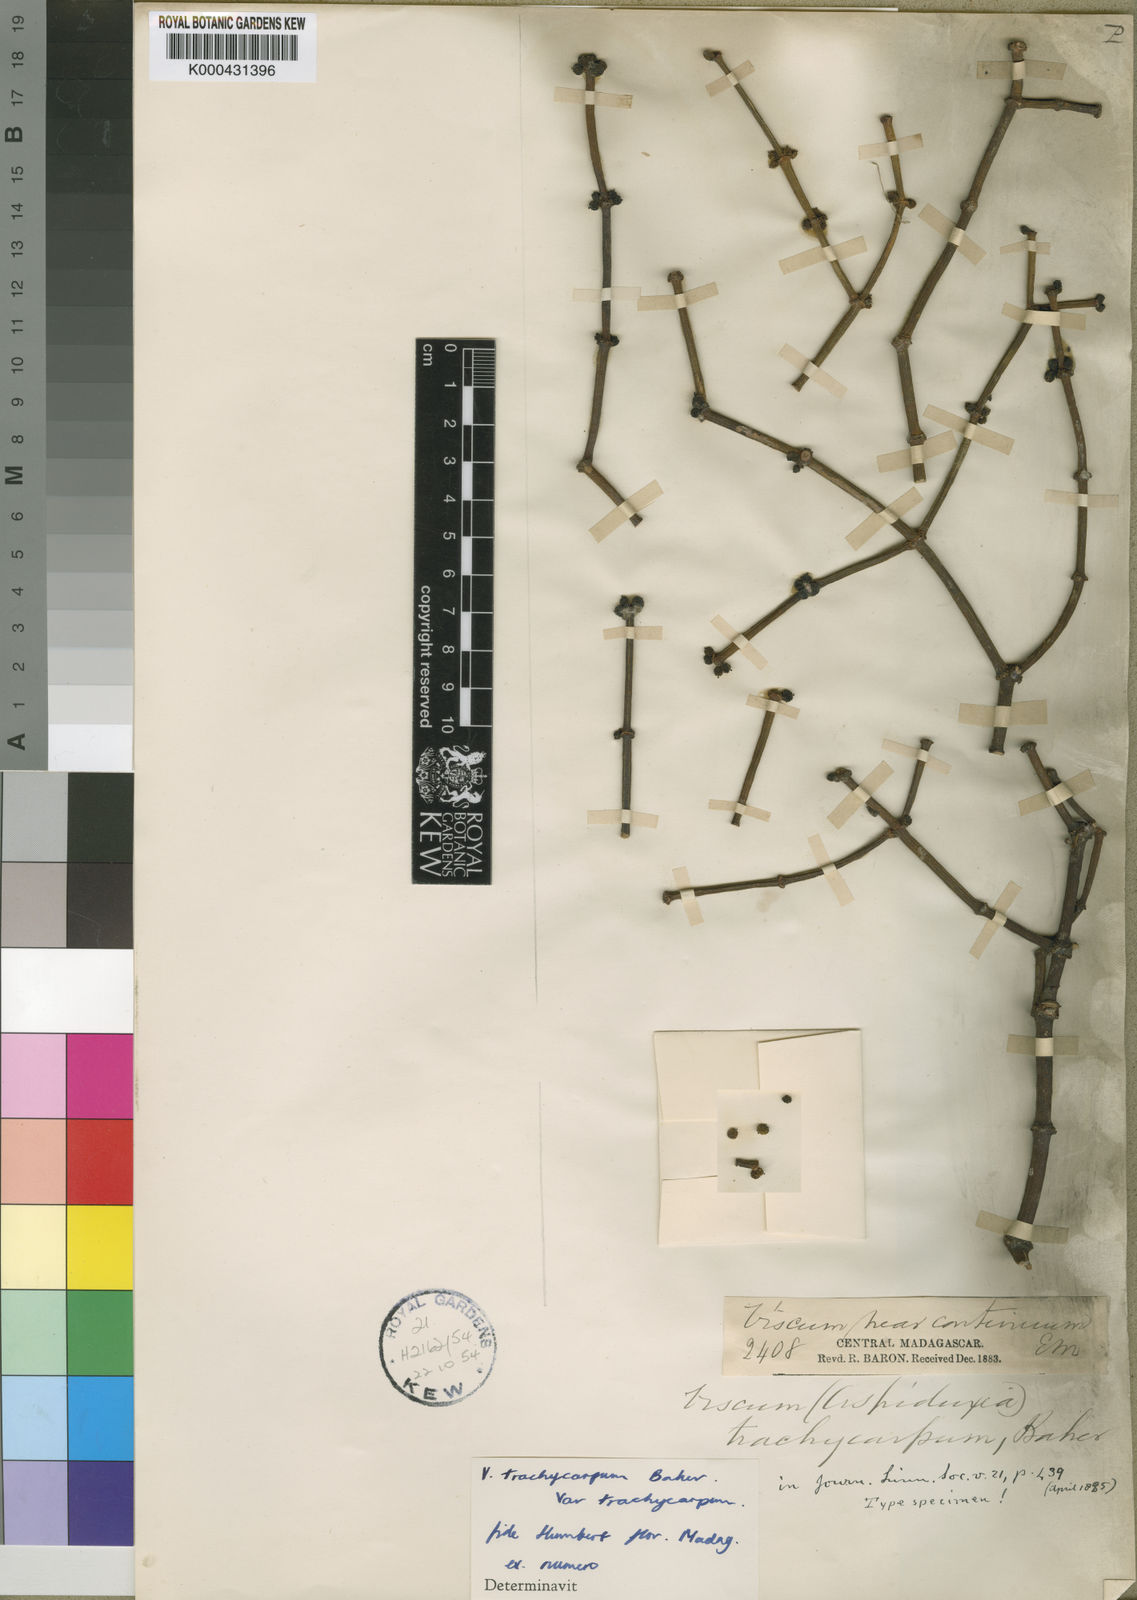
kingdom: Plantae
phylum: Tracheophyta
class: Magnoliopsida
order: Santalales
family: Viscaceae
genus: Viscum
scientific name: Viscum trachycarpum
